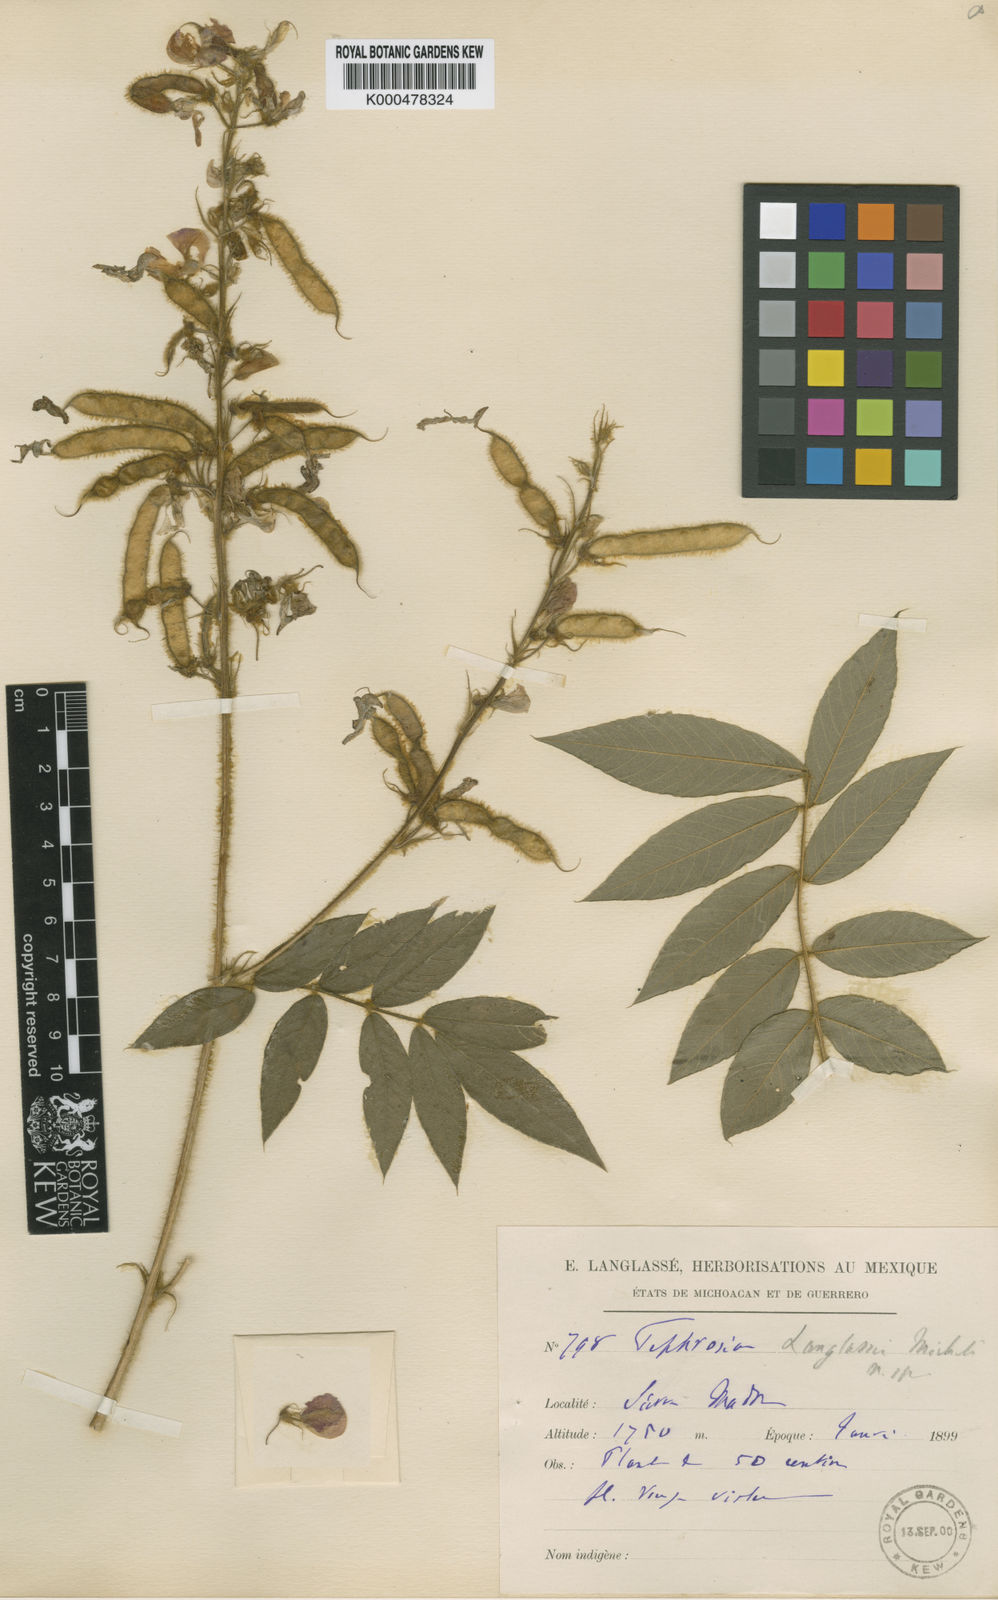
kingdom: Plantae
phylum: Tracheophyta
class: Magnoliopsida
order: Fabales
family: Fabaceae
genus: Tephrosia
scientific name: Tephrosia langlassei
